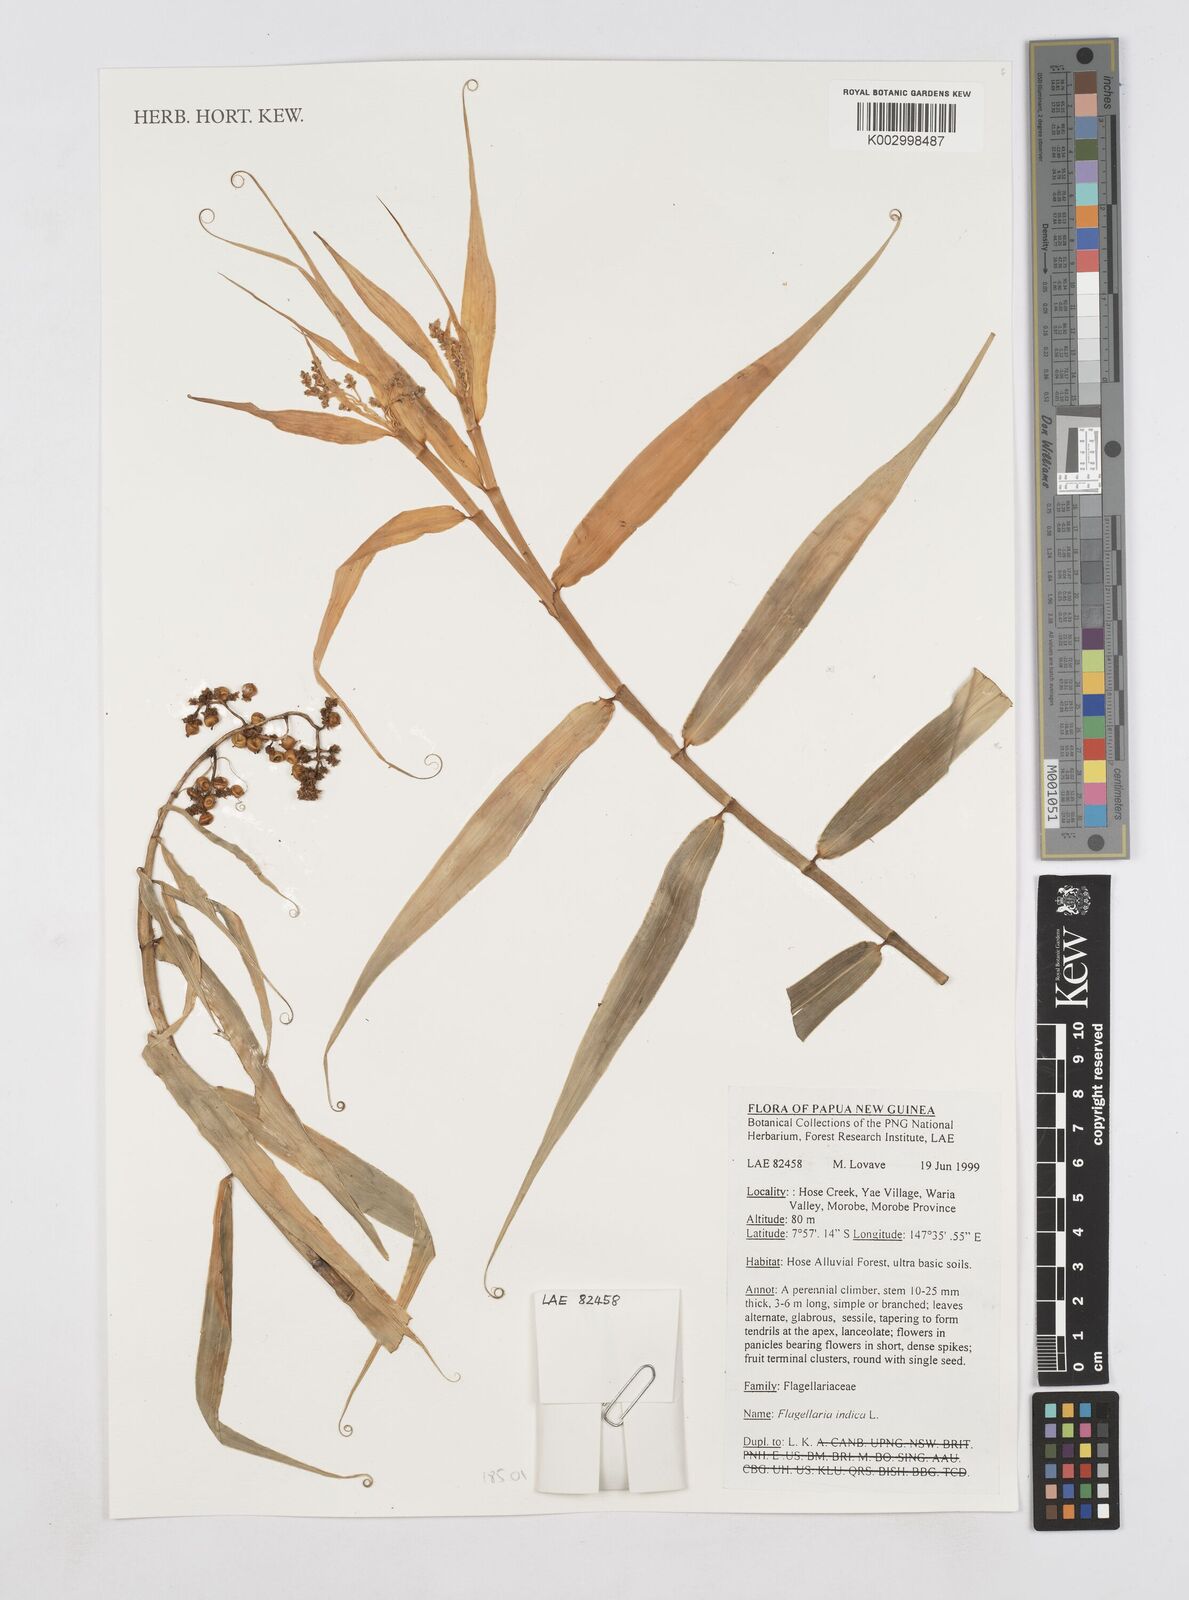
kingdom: Plantae
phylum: Tracheophyta
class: Liliopsida
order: Poales
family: Flagellariaceae
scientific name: Flagellariaceae
